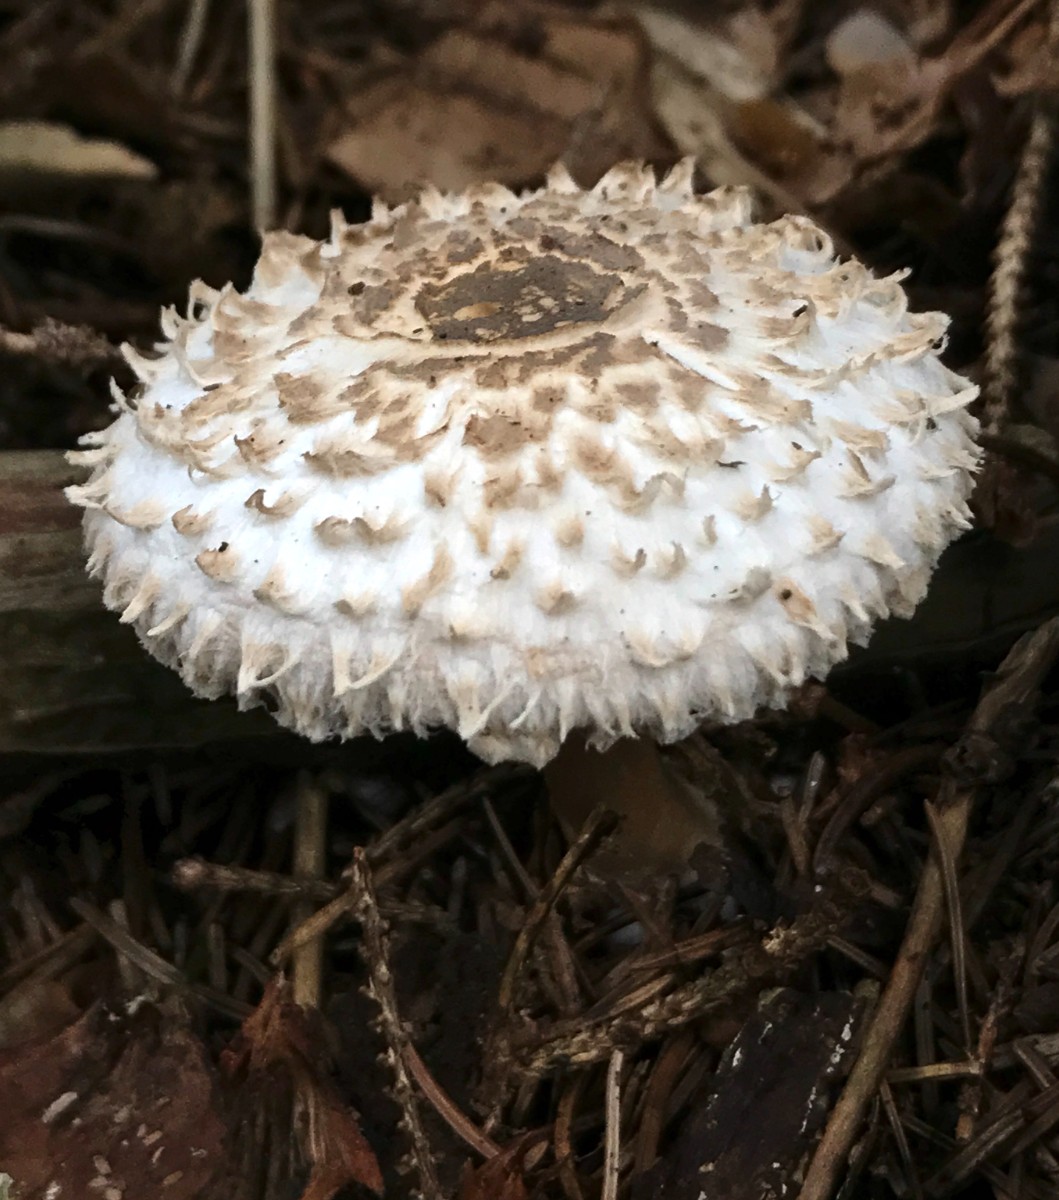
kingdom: Fungi
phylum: Basidiomycota
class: Agaricomycetes
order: Agaricales
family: Agaricaceae
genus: Leucoagaricus
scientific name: Leucoagaricus nympharum
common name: gran-silkehat
